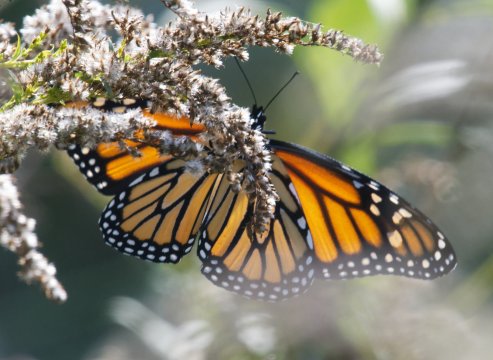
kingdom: Animalia
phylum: Arthropoda
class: Insecta
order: Lepidoptera
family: Nymphalidae
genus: Danaus
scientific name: Danaus plexippus
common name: Monarch
